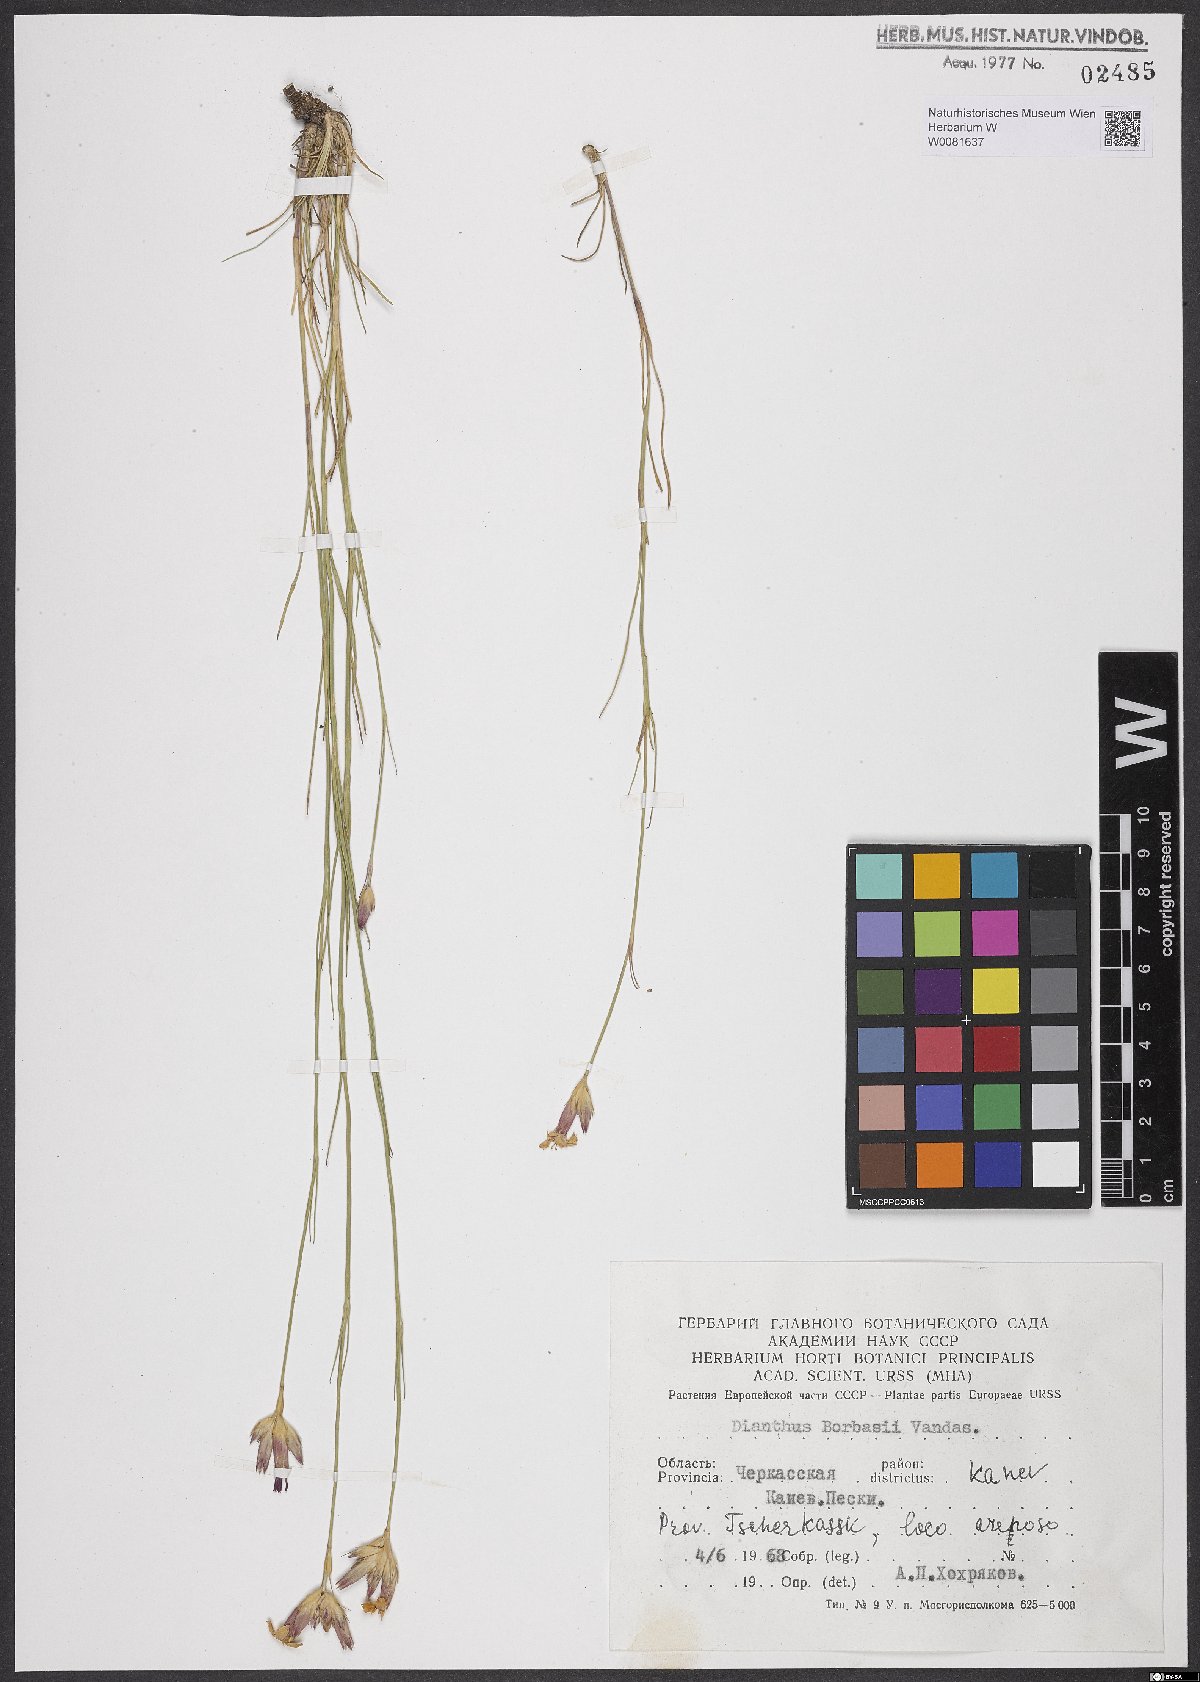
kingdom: Plantae
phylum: Tracheophyta
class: Magnoliopsida
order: Caryophyllales
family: Caryophyllaceae
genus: Dianthus
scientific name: Dianthus borbasii
